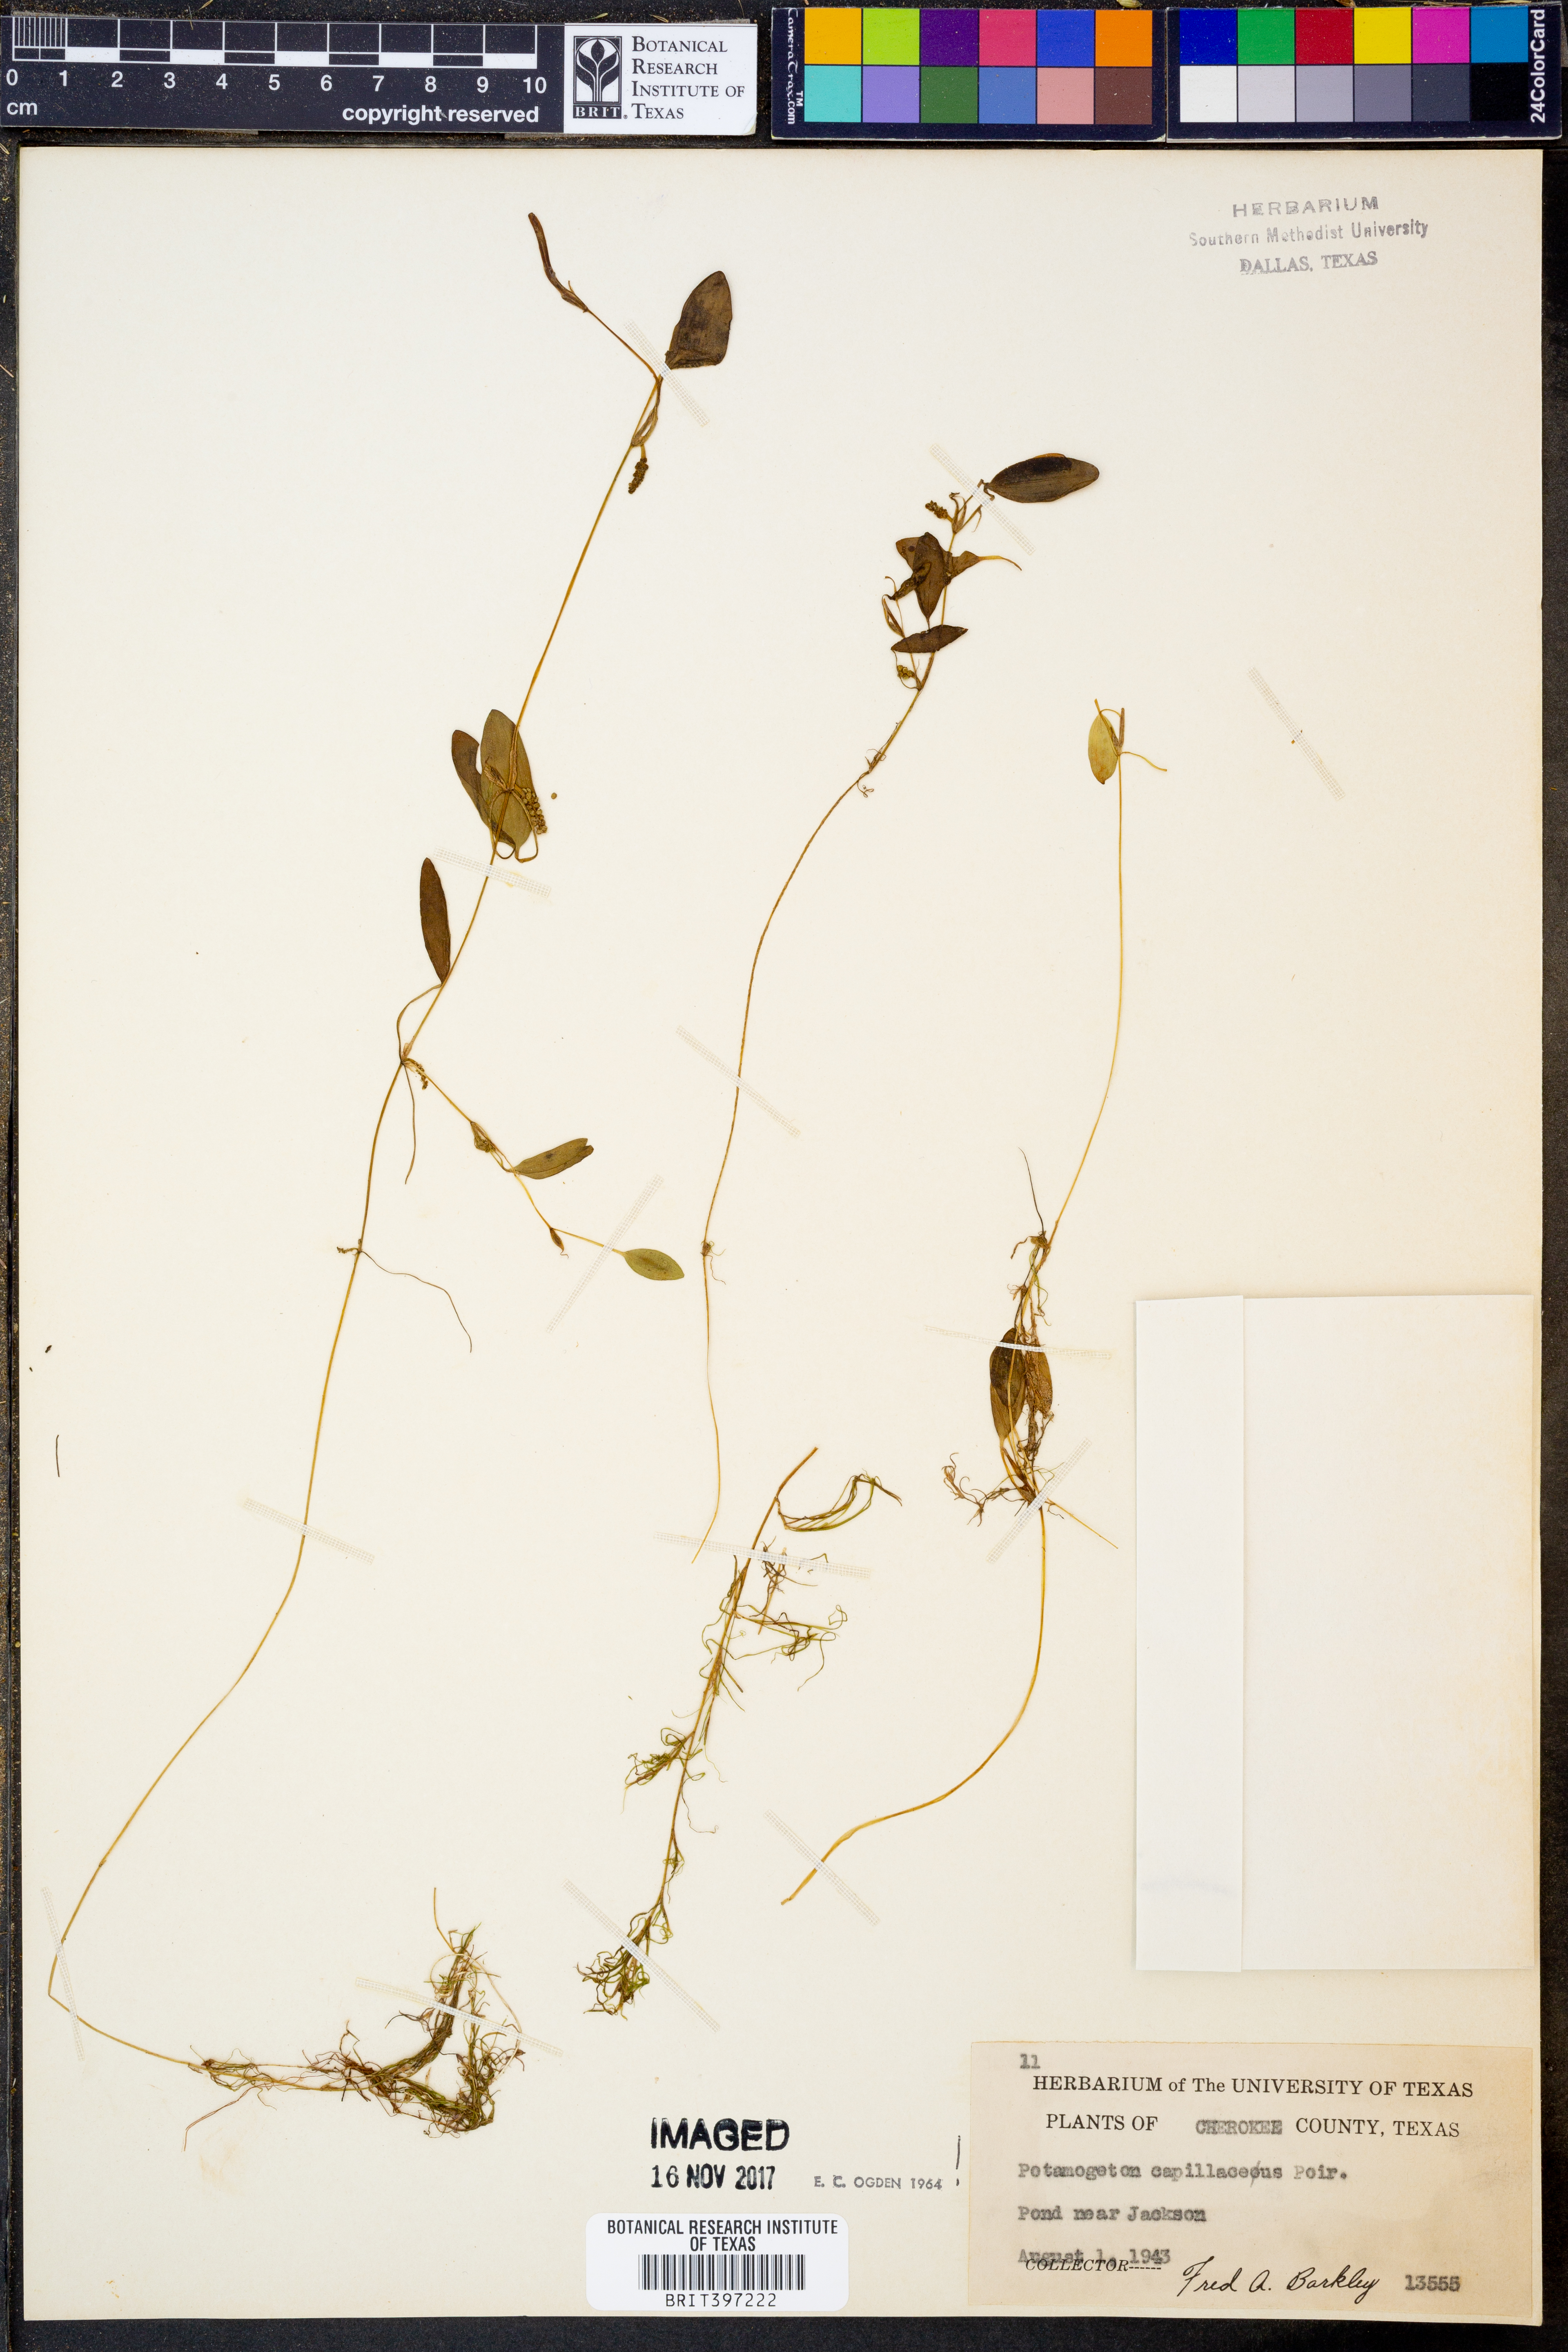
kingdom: Plantae
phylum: Tracheophyta
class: Liliopsida
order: Alismatales
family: Potamogetonaceae
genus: Potamogeton
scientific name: Potamogeton diversifolius
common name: Water-thread pondweed
